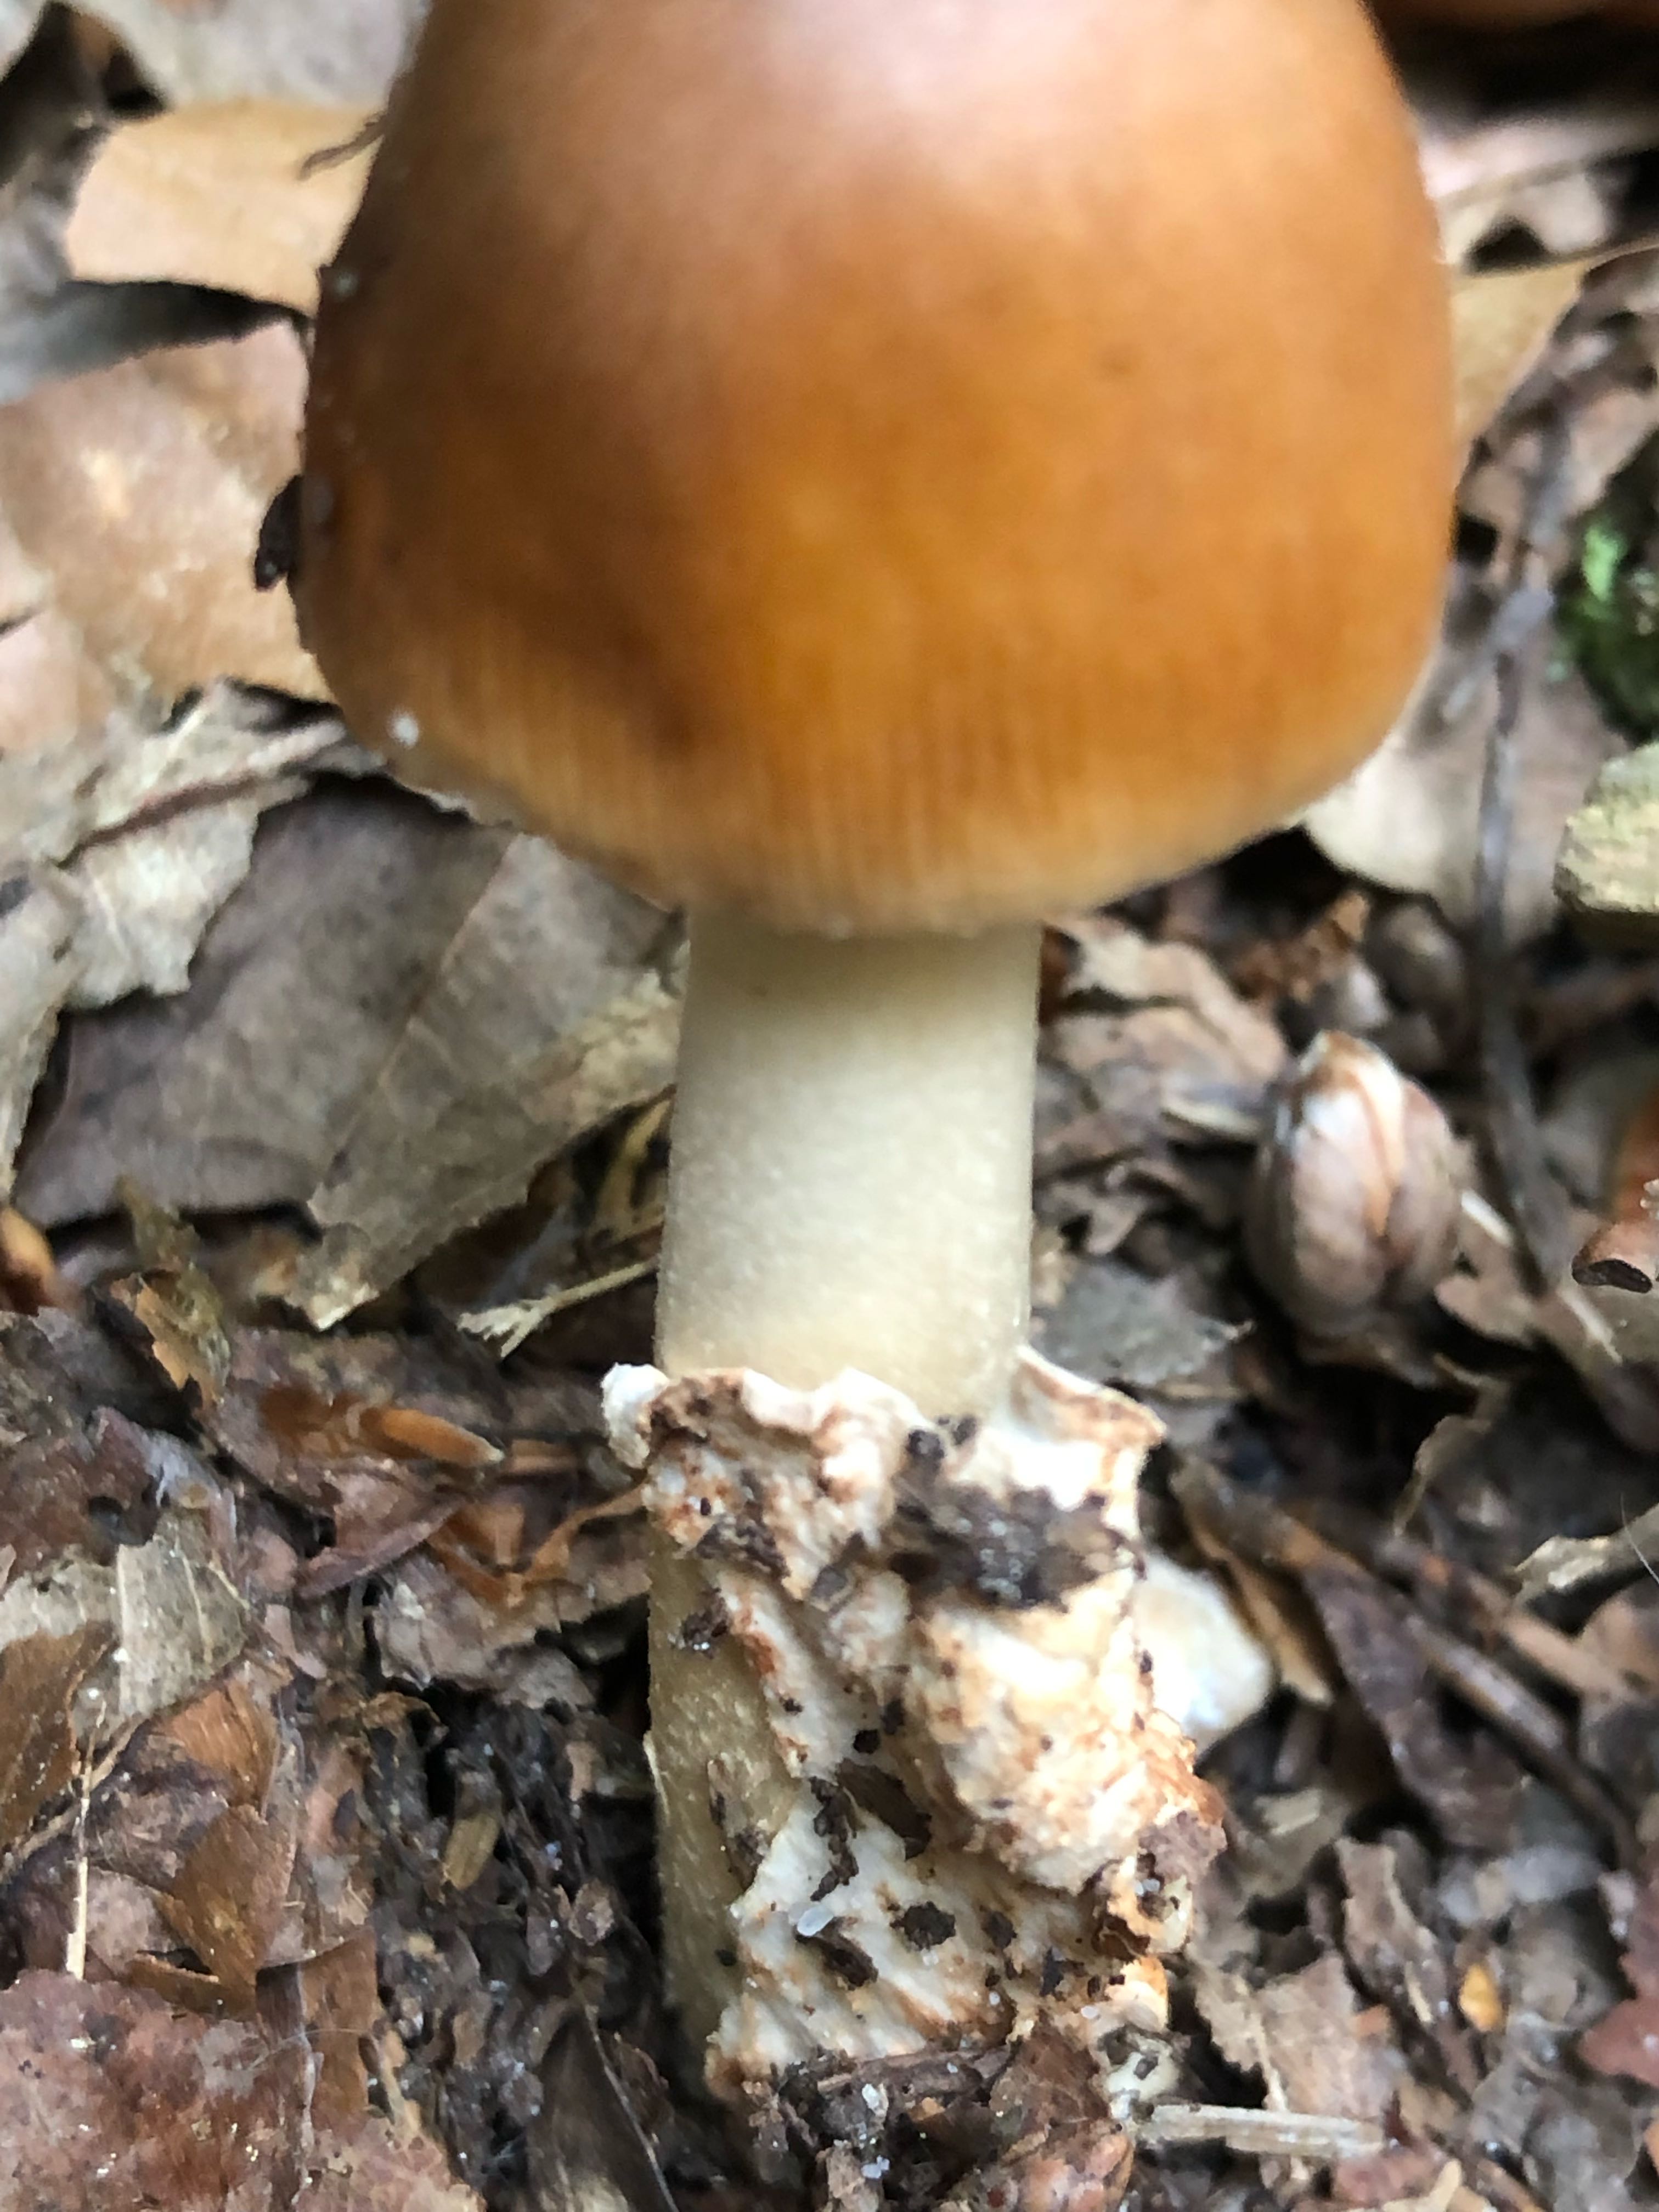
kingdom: Fungi
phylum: Basidiomycota
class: Agaricomycetes
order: Agaricales
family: Amanitaceae
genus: Amanita
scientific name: Amanita fulva
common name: brun kam-fluesvamp
